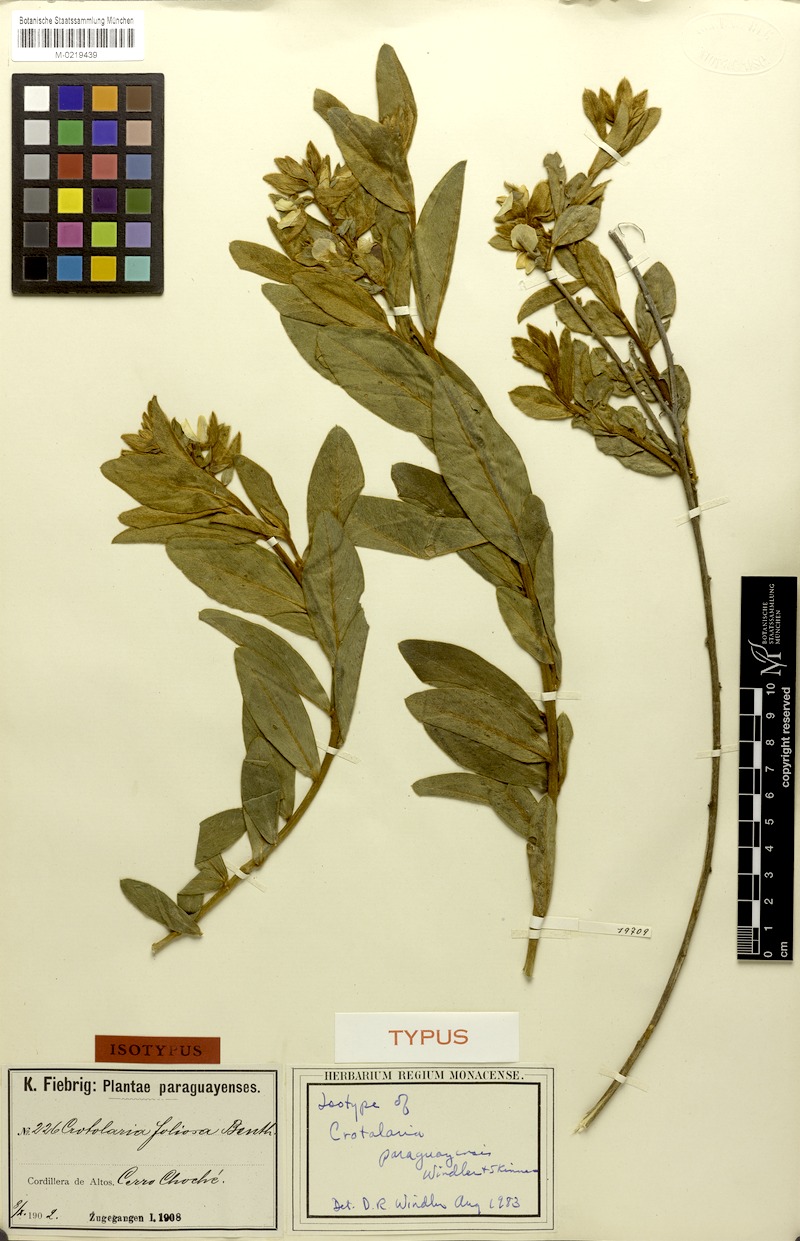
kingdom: Plantae
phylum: Tracheophyta
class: Magnoliopsida
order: Fabales
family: Fabaceae
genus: Crotalaria
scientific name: Crotalaria martiana
